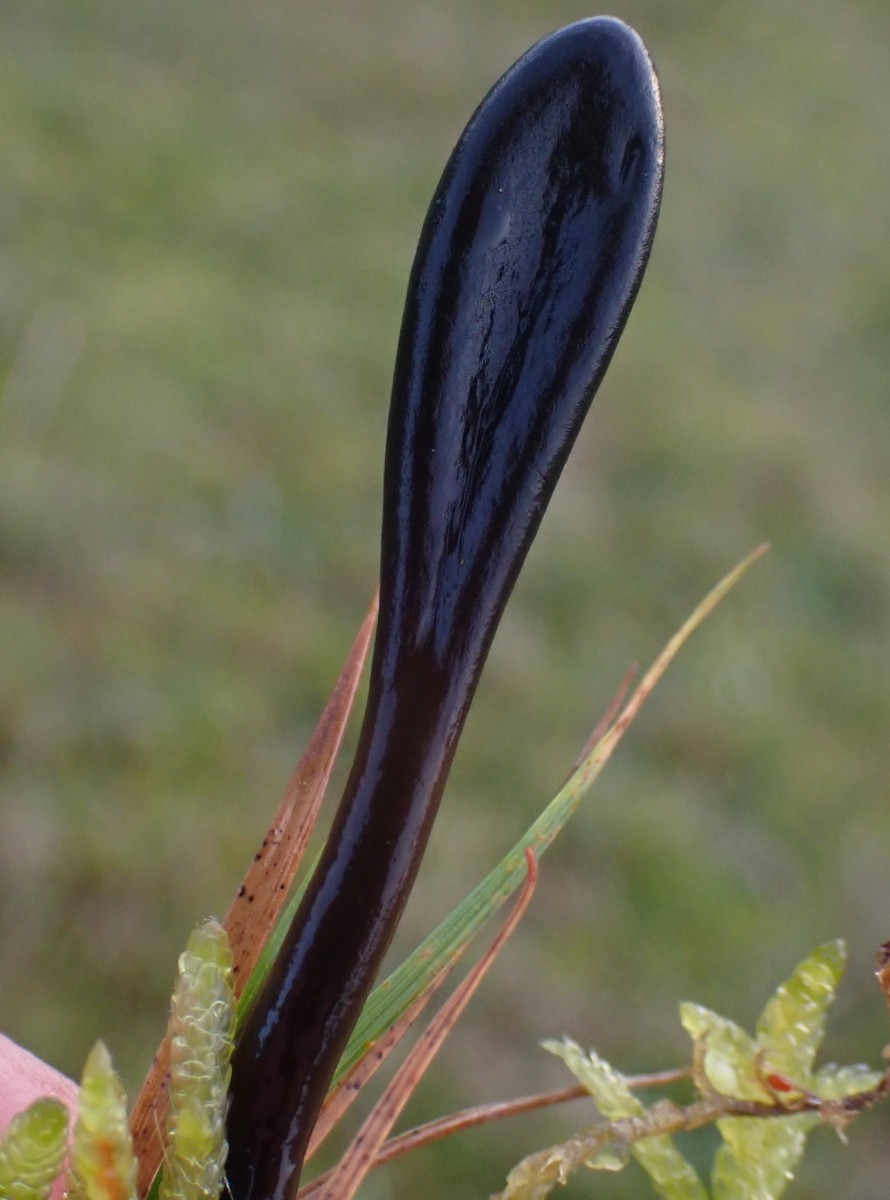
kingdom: Fungi
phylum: Ascomycota
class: Geoglossomycetes
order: Geoglossales
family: Geoglossaceae
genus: Glutinoglossum
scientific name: Glutinoglossum
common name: jordtunge
